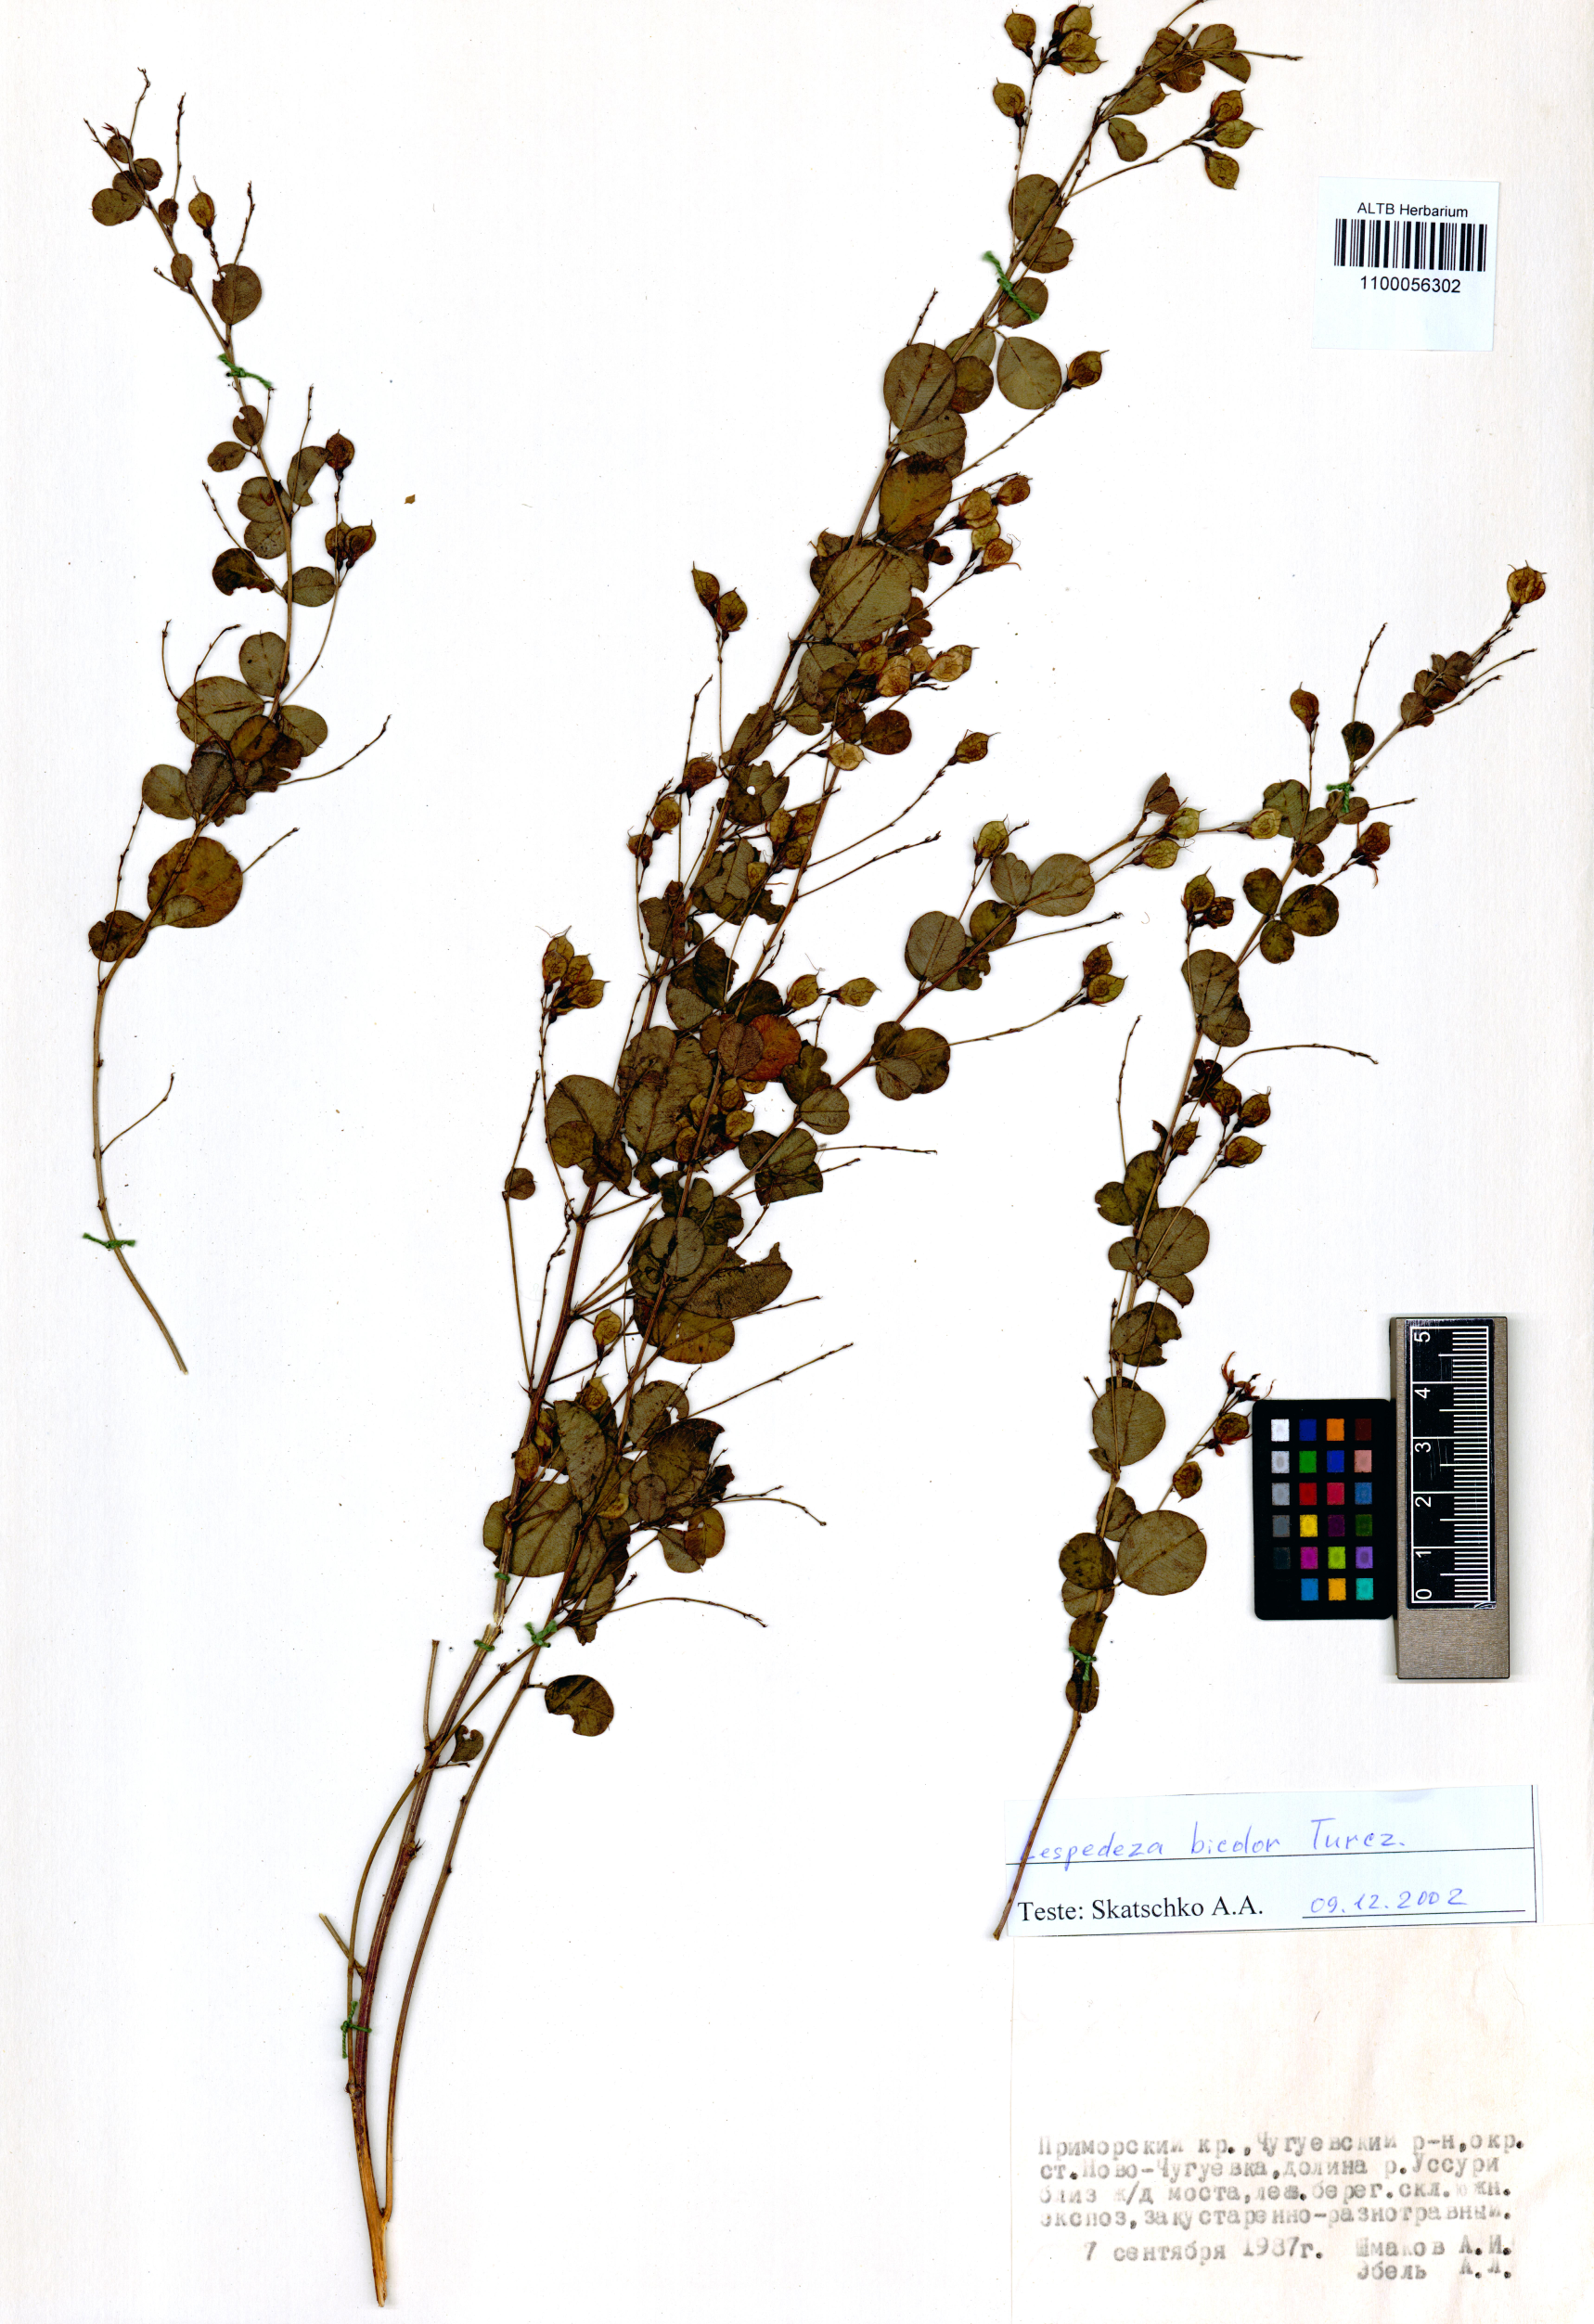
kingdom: Plantae
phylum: Tracheophyta
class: Magnoliopsida
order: Fabales
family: Fabaceae
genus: Lespedeza
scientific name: Lespedeza bicolor
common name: Shrub lespedeza
